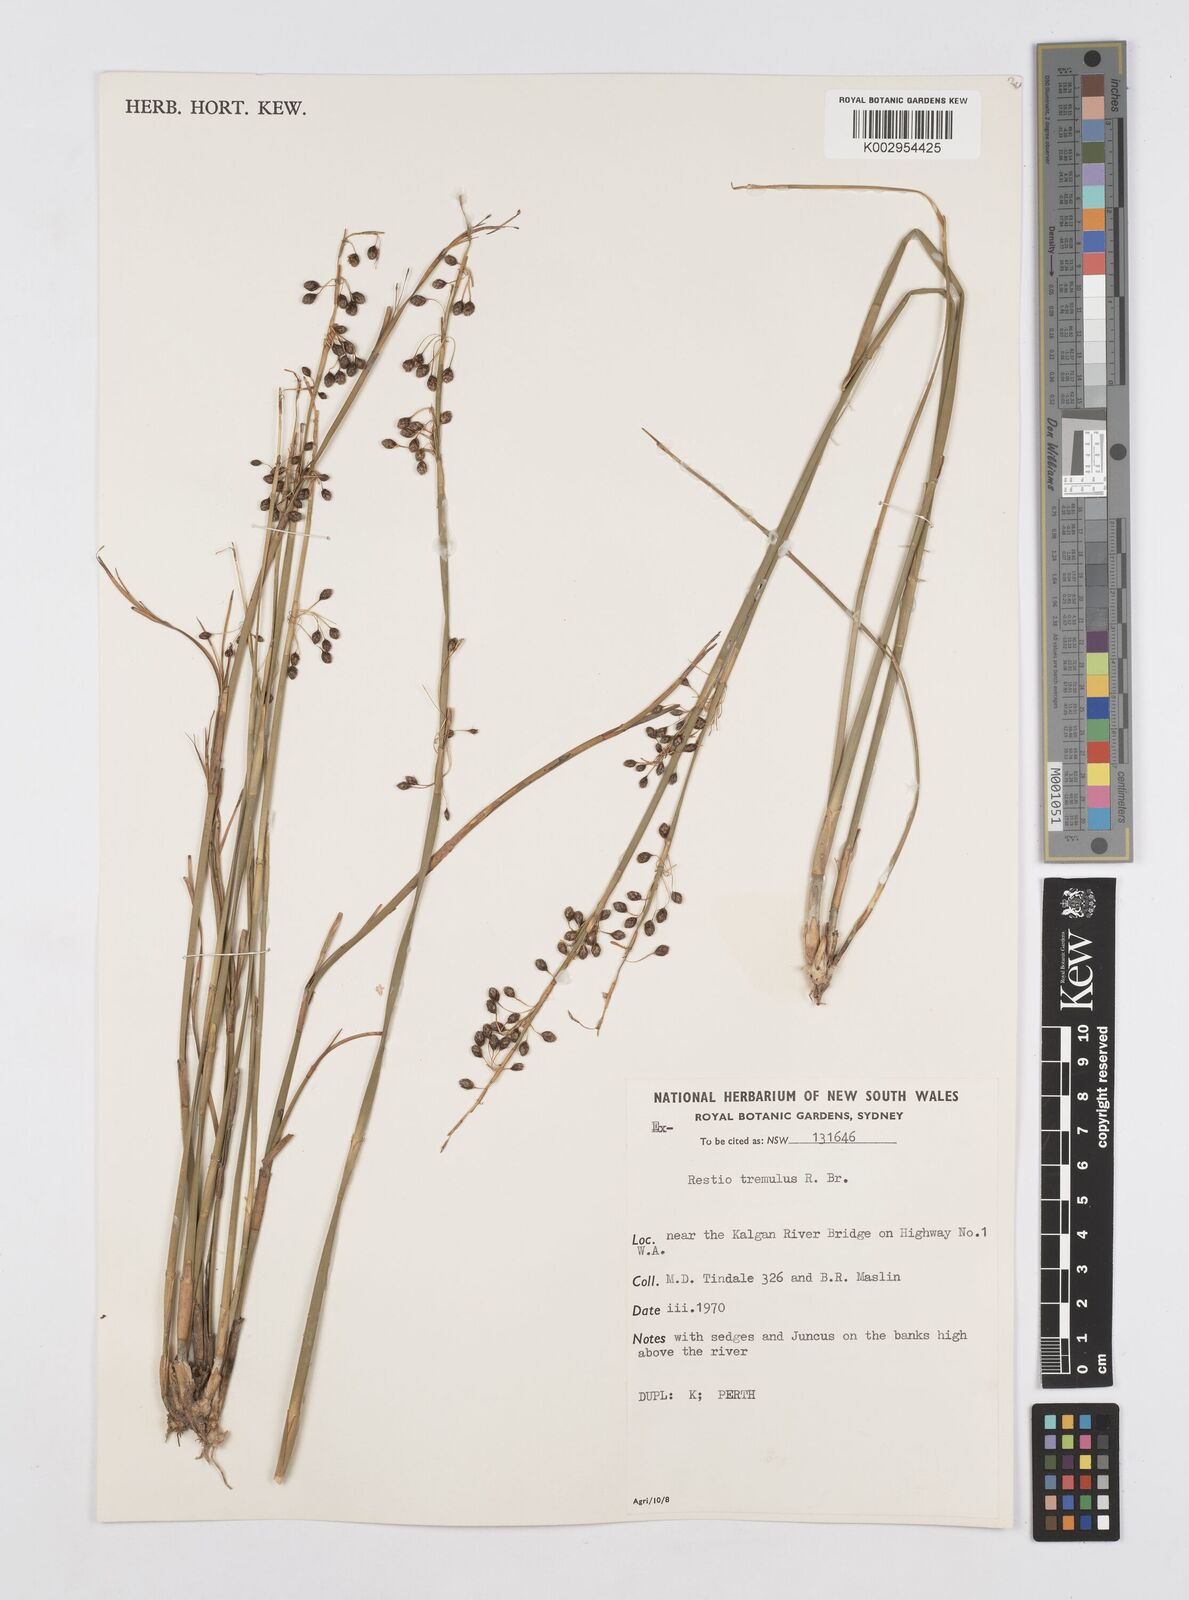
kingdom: Plantae
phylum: Tracheophyta
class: Liliopsida
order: Poales
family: Restionaceae
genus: Tremulina
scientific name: Tremulina tremula
